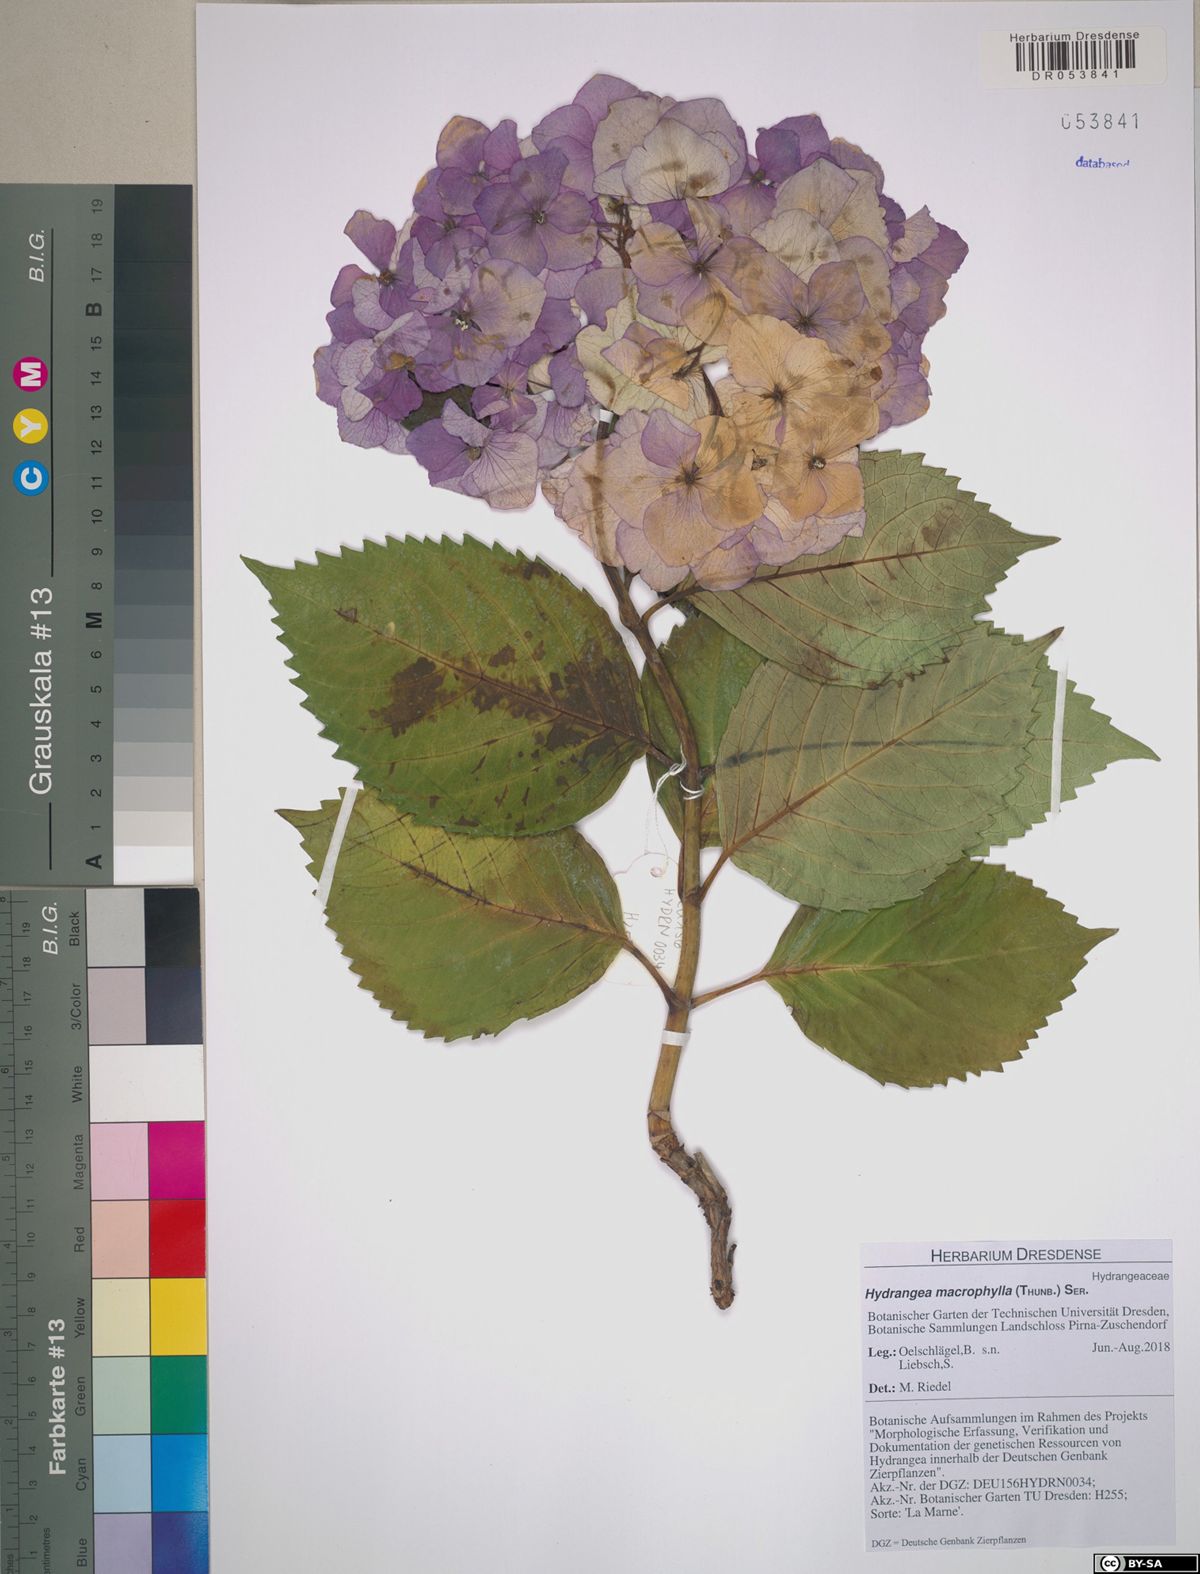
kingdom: Plantae
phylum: Tracheophyta
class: Magnoliopsida
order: Cornales
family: Hydrangeaceae
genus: Hydrangea
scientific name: Hydrangea macrophylla
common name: Hydrangea
